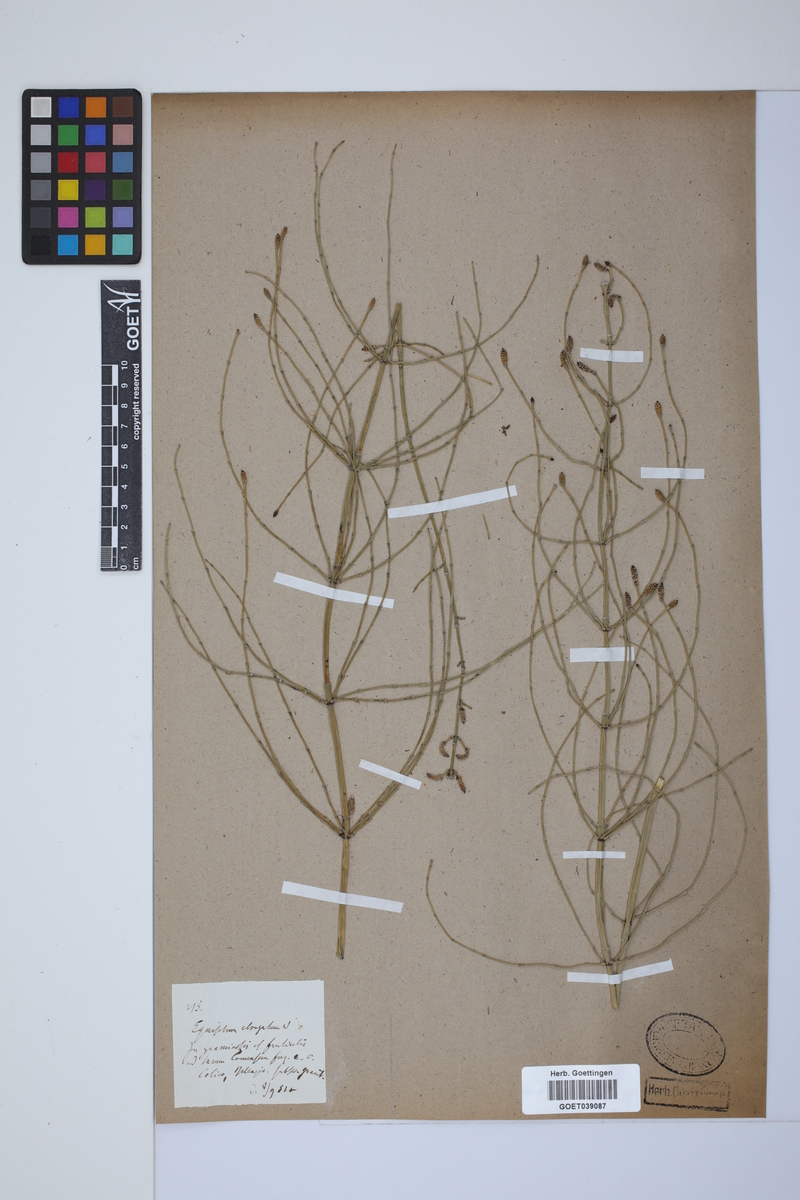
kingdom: Plantae
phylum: Tracheophyta
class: Polypodiopsida
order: Equisetales
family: Equisetaceae
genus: Equisetum
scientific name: Equisetum giganteum
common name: Giant horsetail
